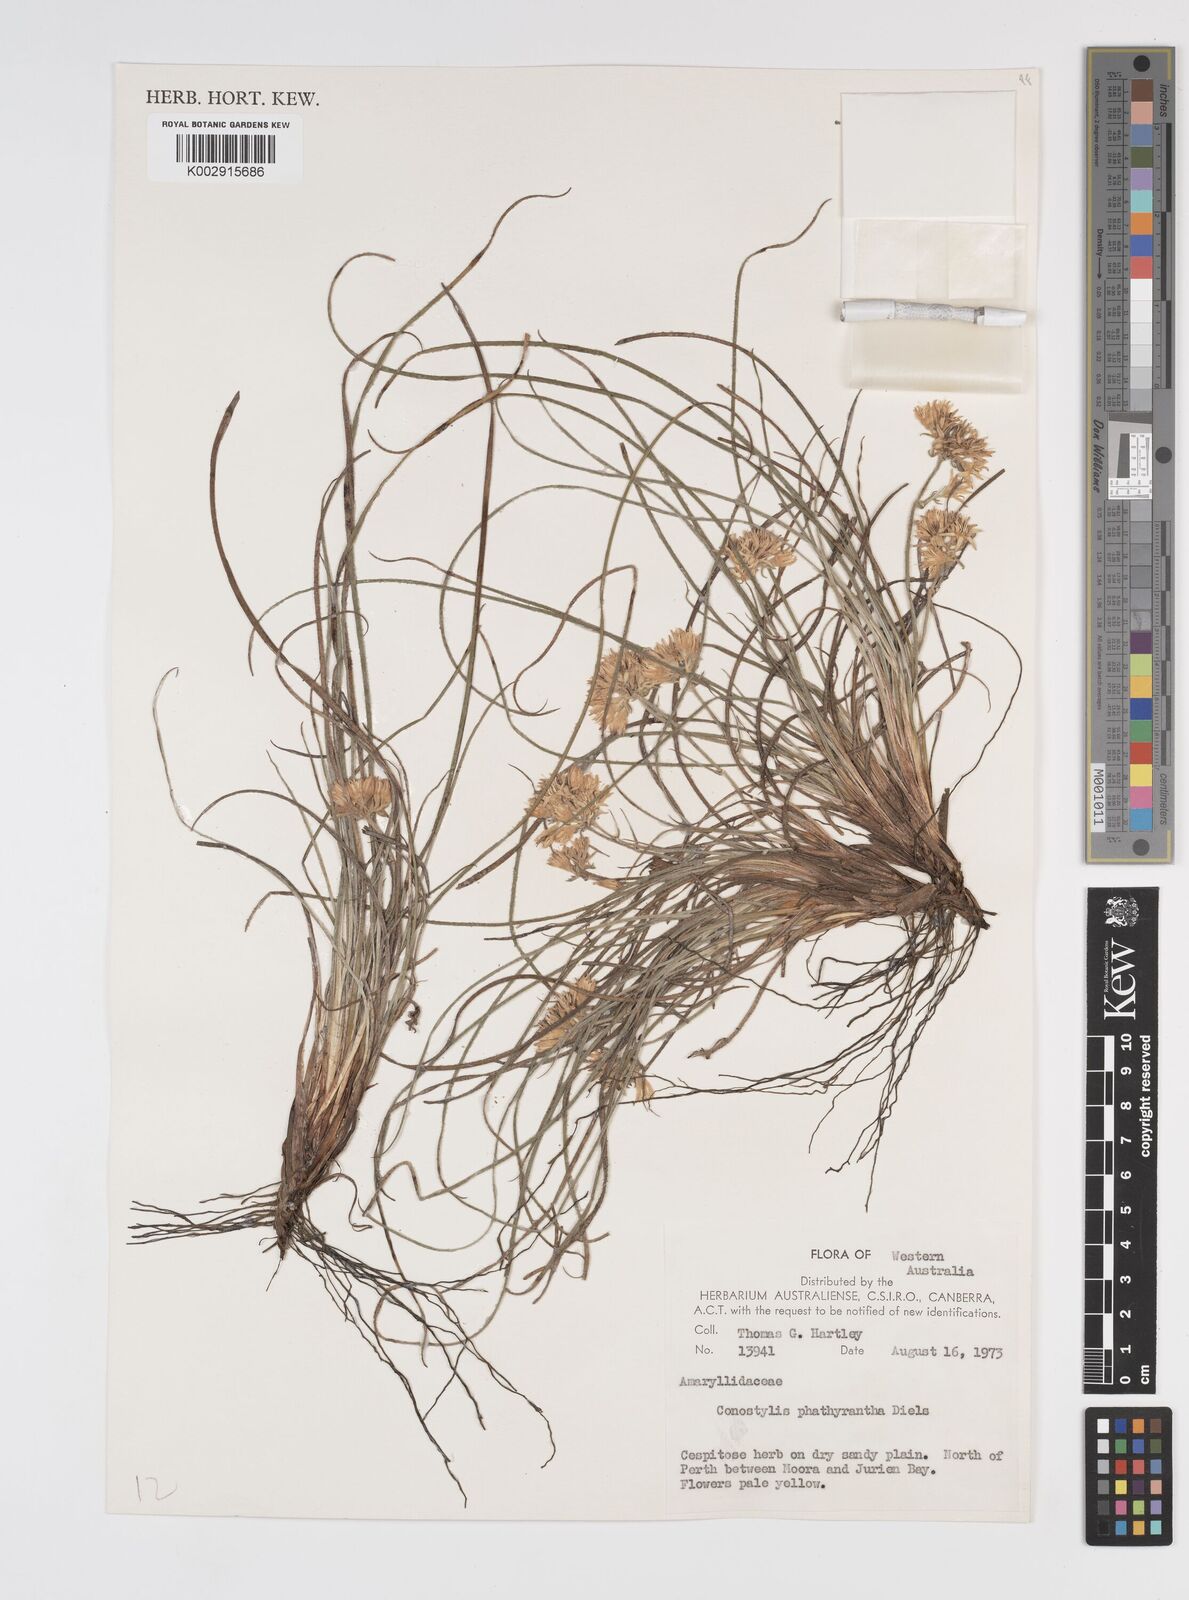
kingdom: Plantae
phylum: Tracheophyta
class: Liliopsida
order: Commelinales
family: Haemodoraceae
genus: Conostylis
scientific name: Conostylis phathyrantha
